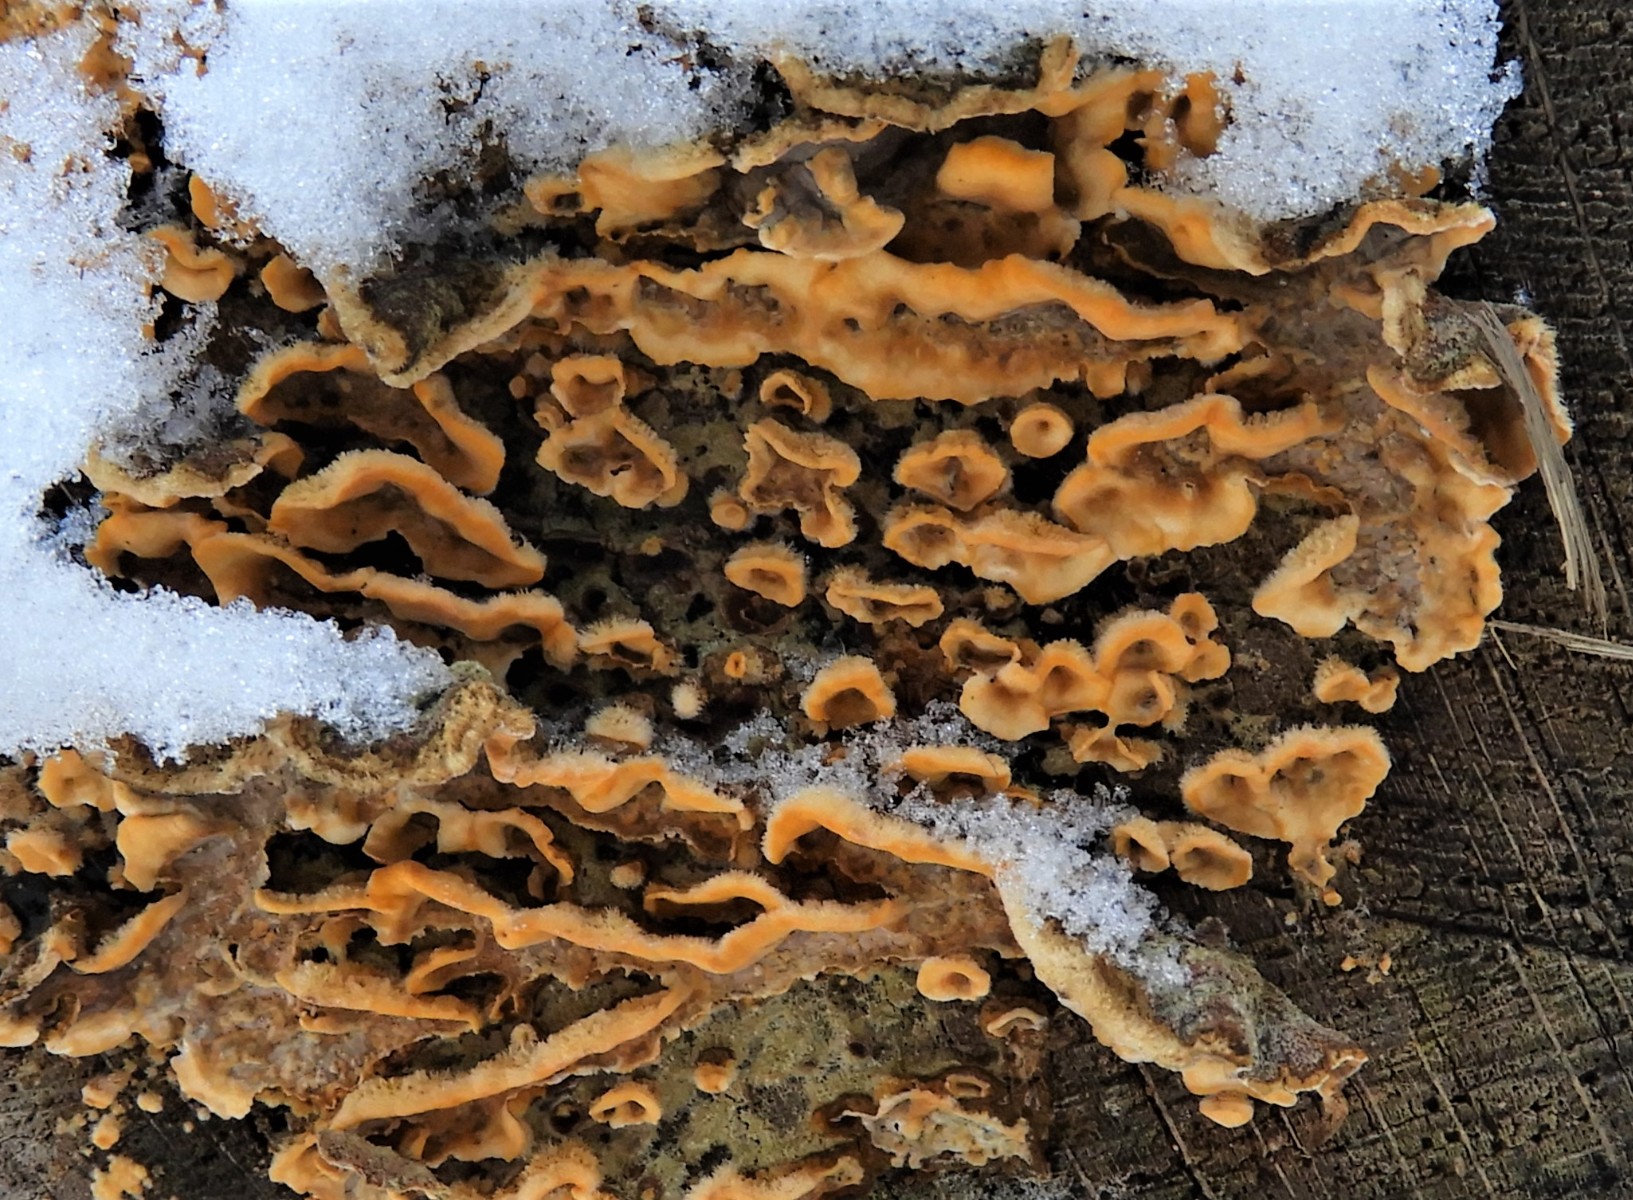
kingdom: Fungi
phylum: Basidiomycota
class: Agaricomycetes
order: Russulales
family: Stereaceae
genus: Stereum
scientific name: Stereum hirsutum
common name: håret lædersvamp
